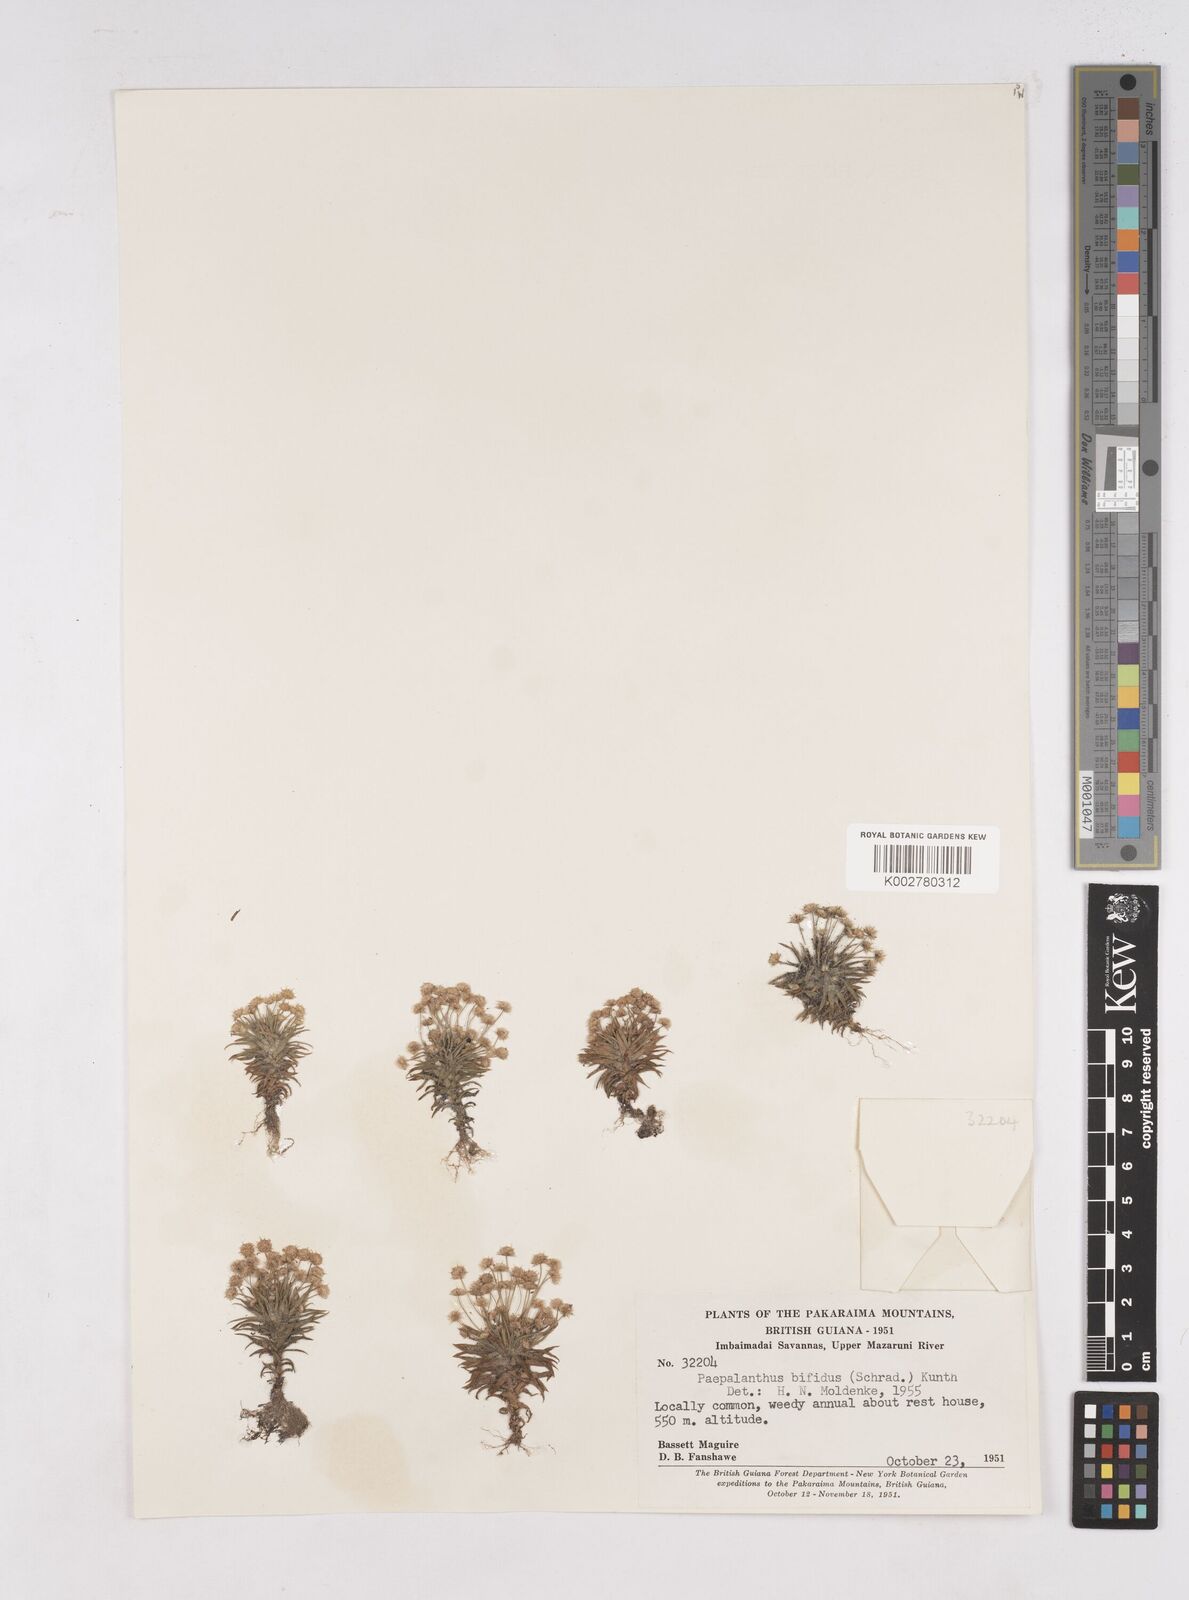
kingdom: Plantae
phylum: Tracheophyta
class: Liliopsida
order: Poales
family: Eriocaulaceae
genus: Paepalanthus
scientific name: Paepalanthus bifidus
